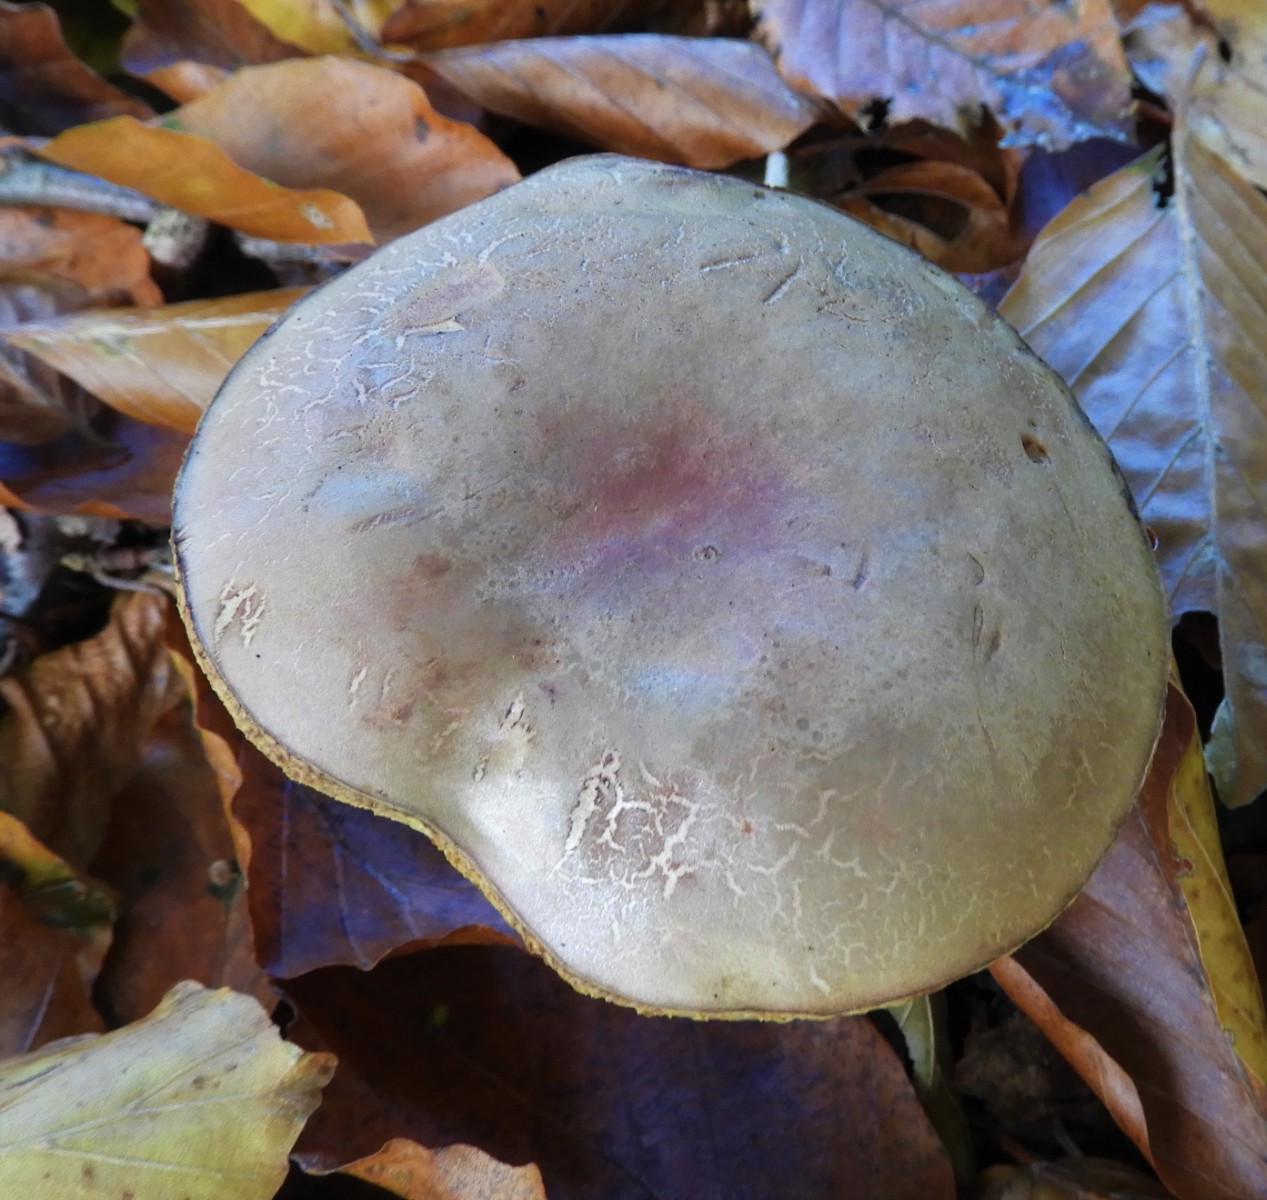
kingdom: Fungi
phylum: Basidiomycota
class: Agaricomycetes
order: Boletales
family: Boletaceae
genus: Xerocomellus
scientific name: Xerocomellus pruinatus
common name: dugget rørhat
